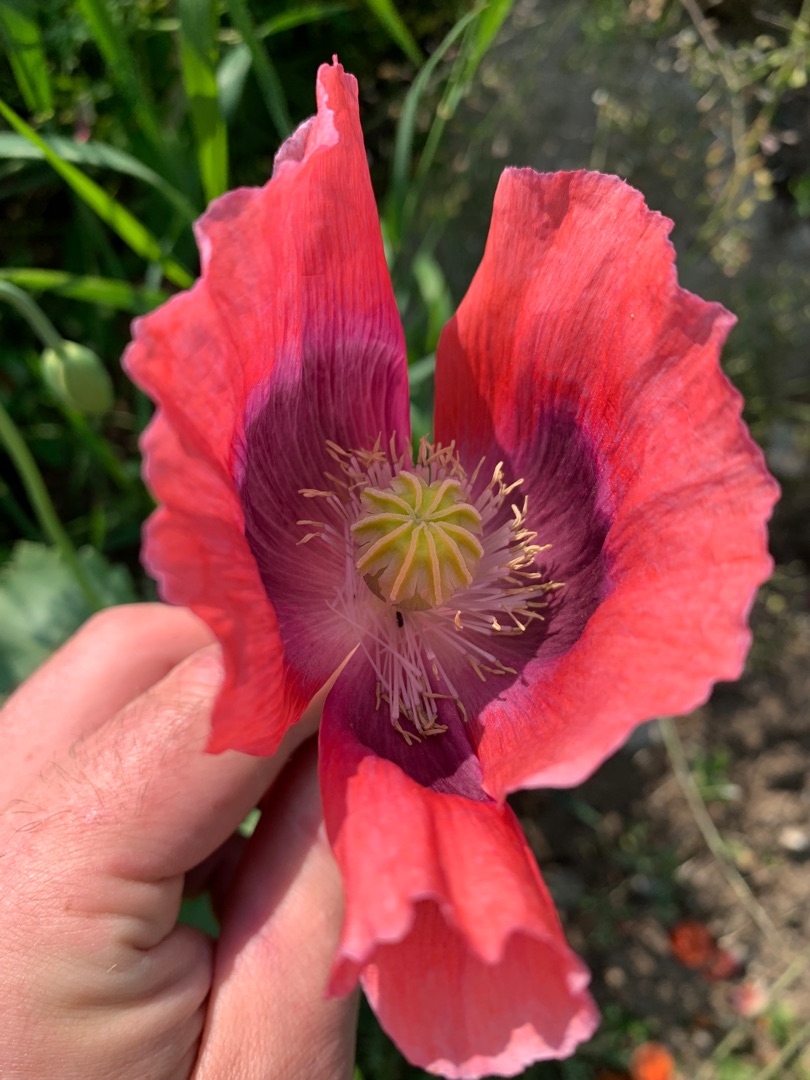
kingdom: Plantae
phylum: Tracheophyta
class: Magnoliopsida
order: Ranunculales
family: Papaveraceae
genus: Papaver
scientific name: Papaver somniferum
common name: Opium-valmue
